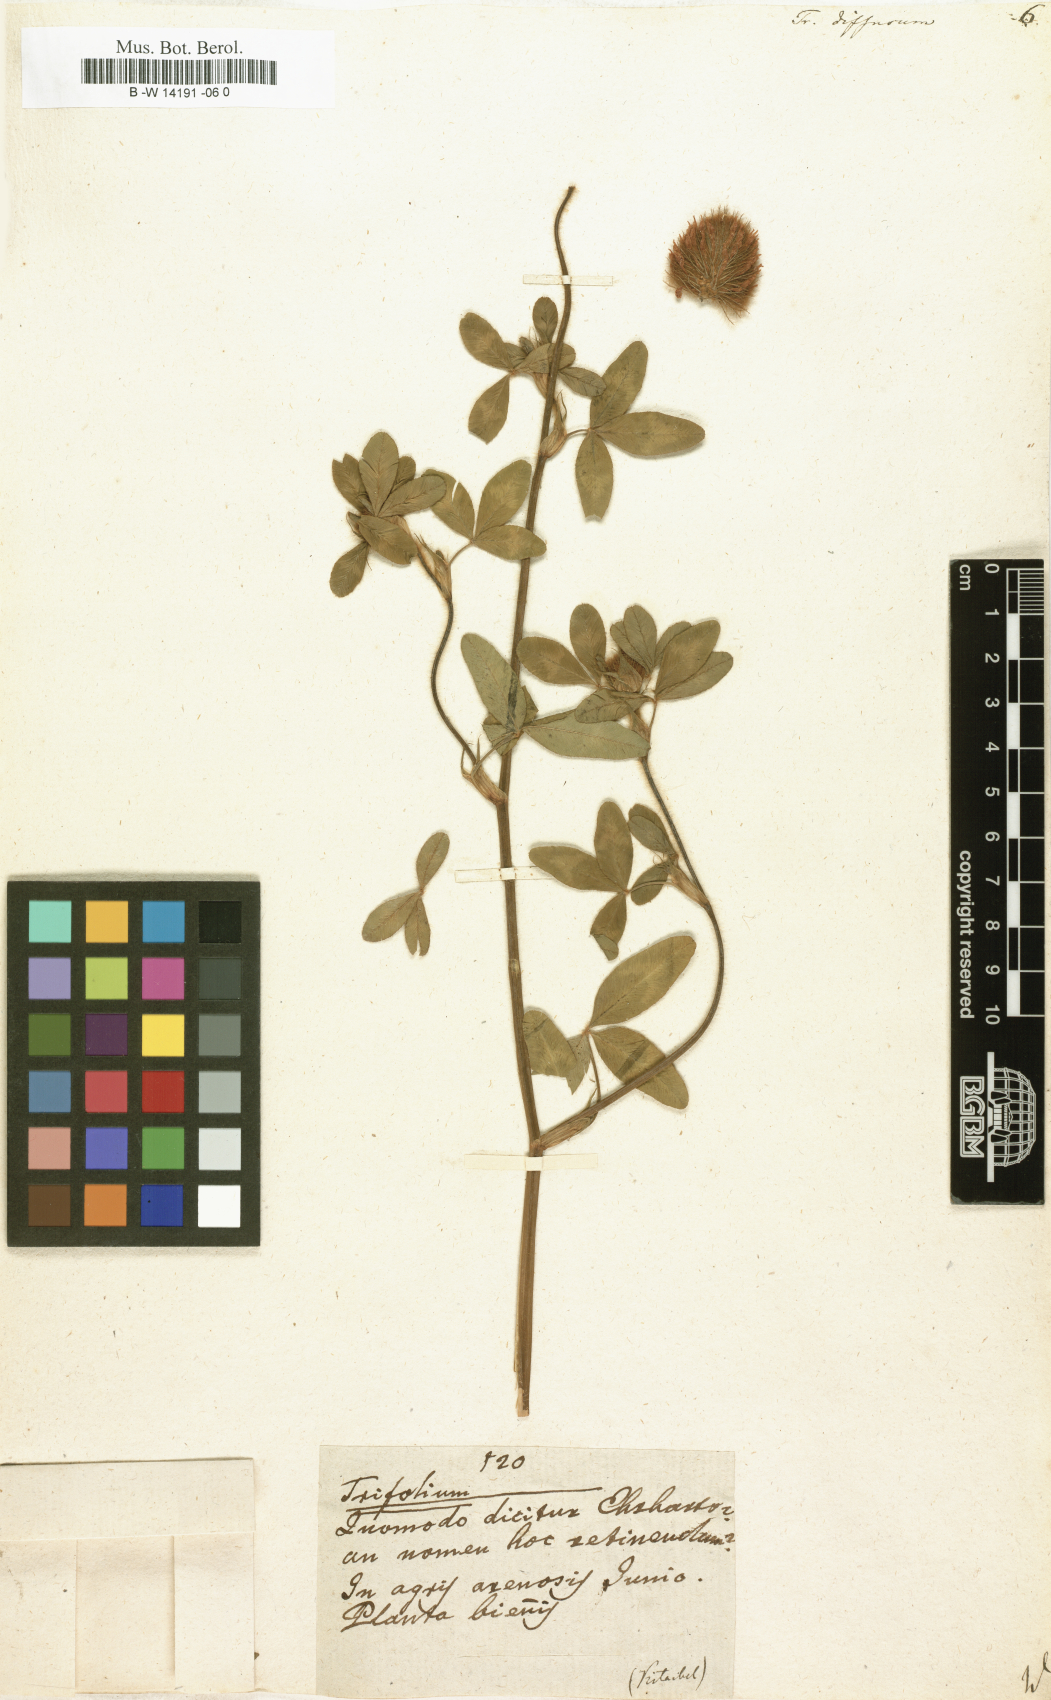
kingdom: Plantae
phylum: Tracheophyta
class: Magnoliopsida
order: Fabales
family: Fabaceae
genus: Trifolium
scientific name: Trifolium diffusum
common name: Diffuse clover
